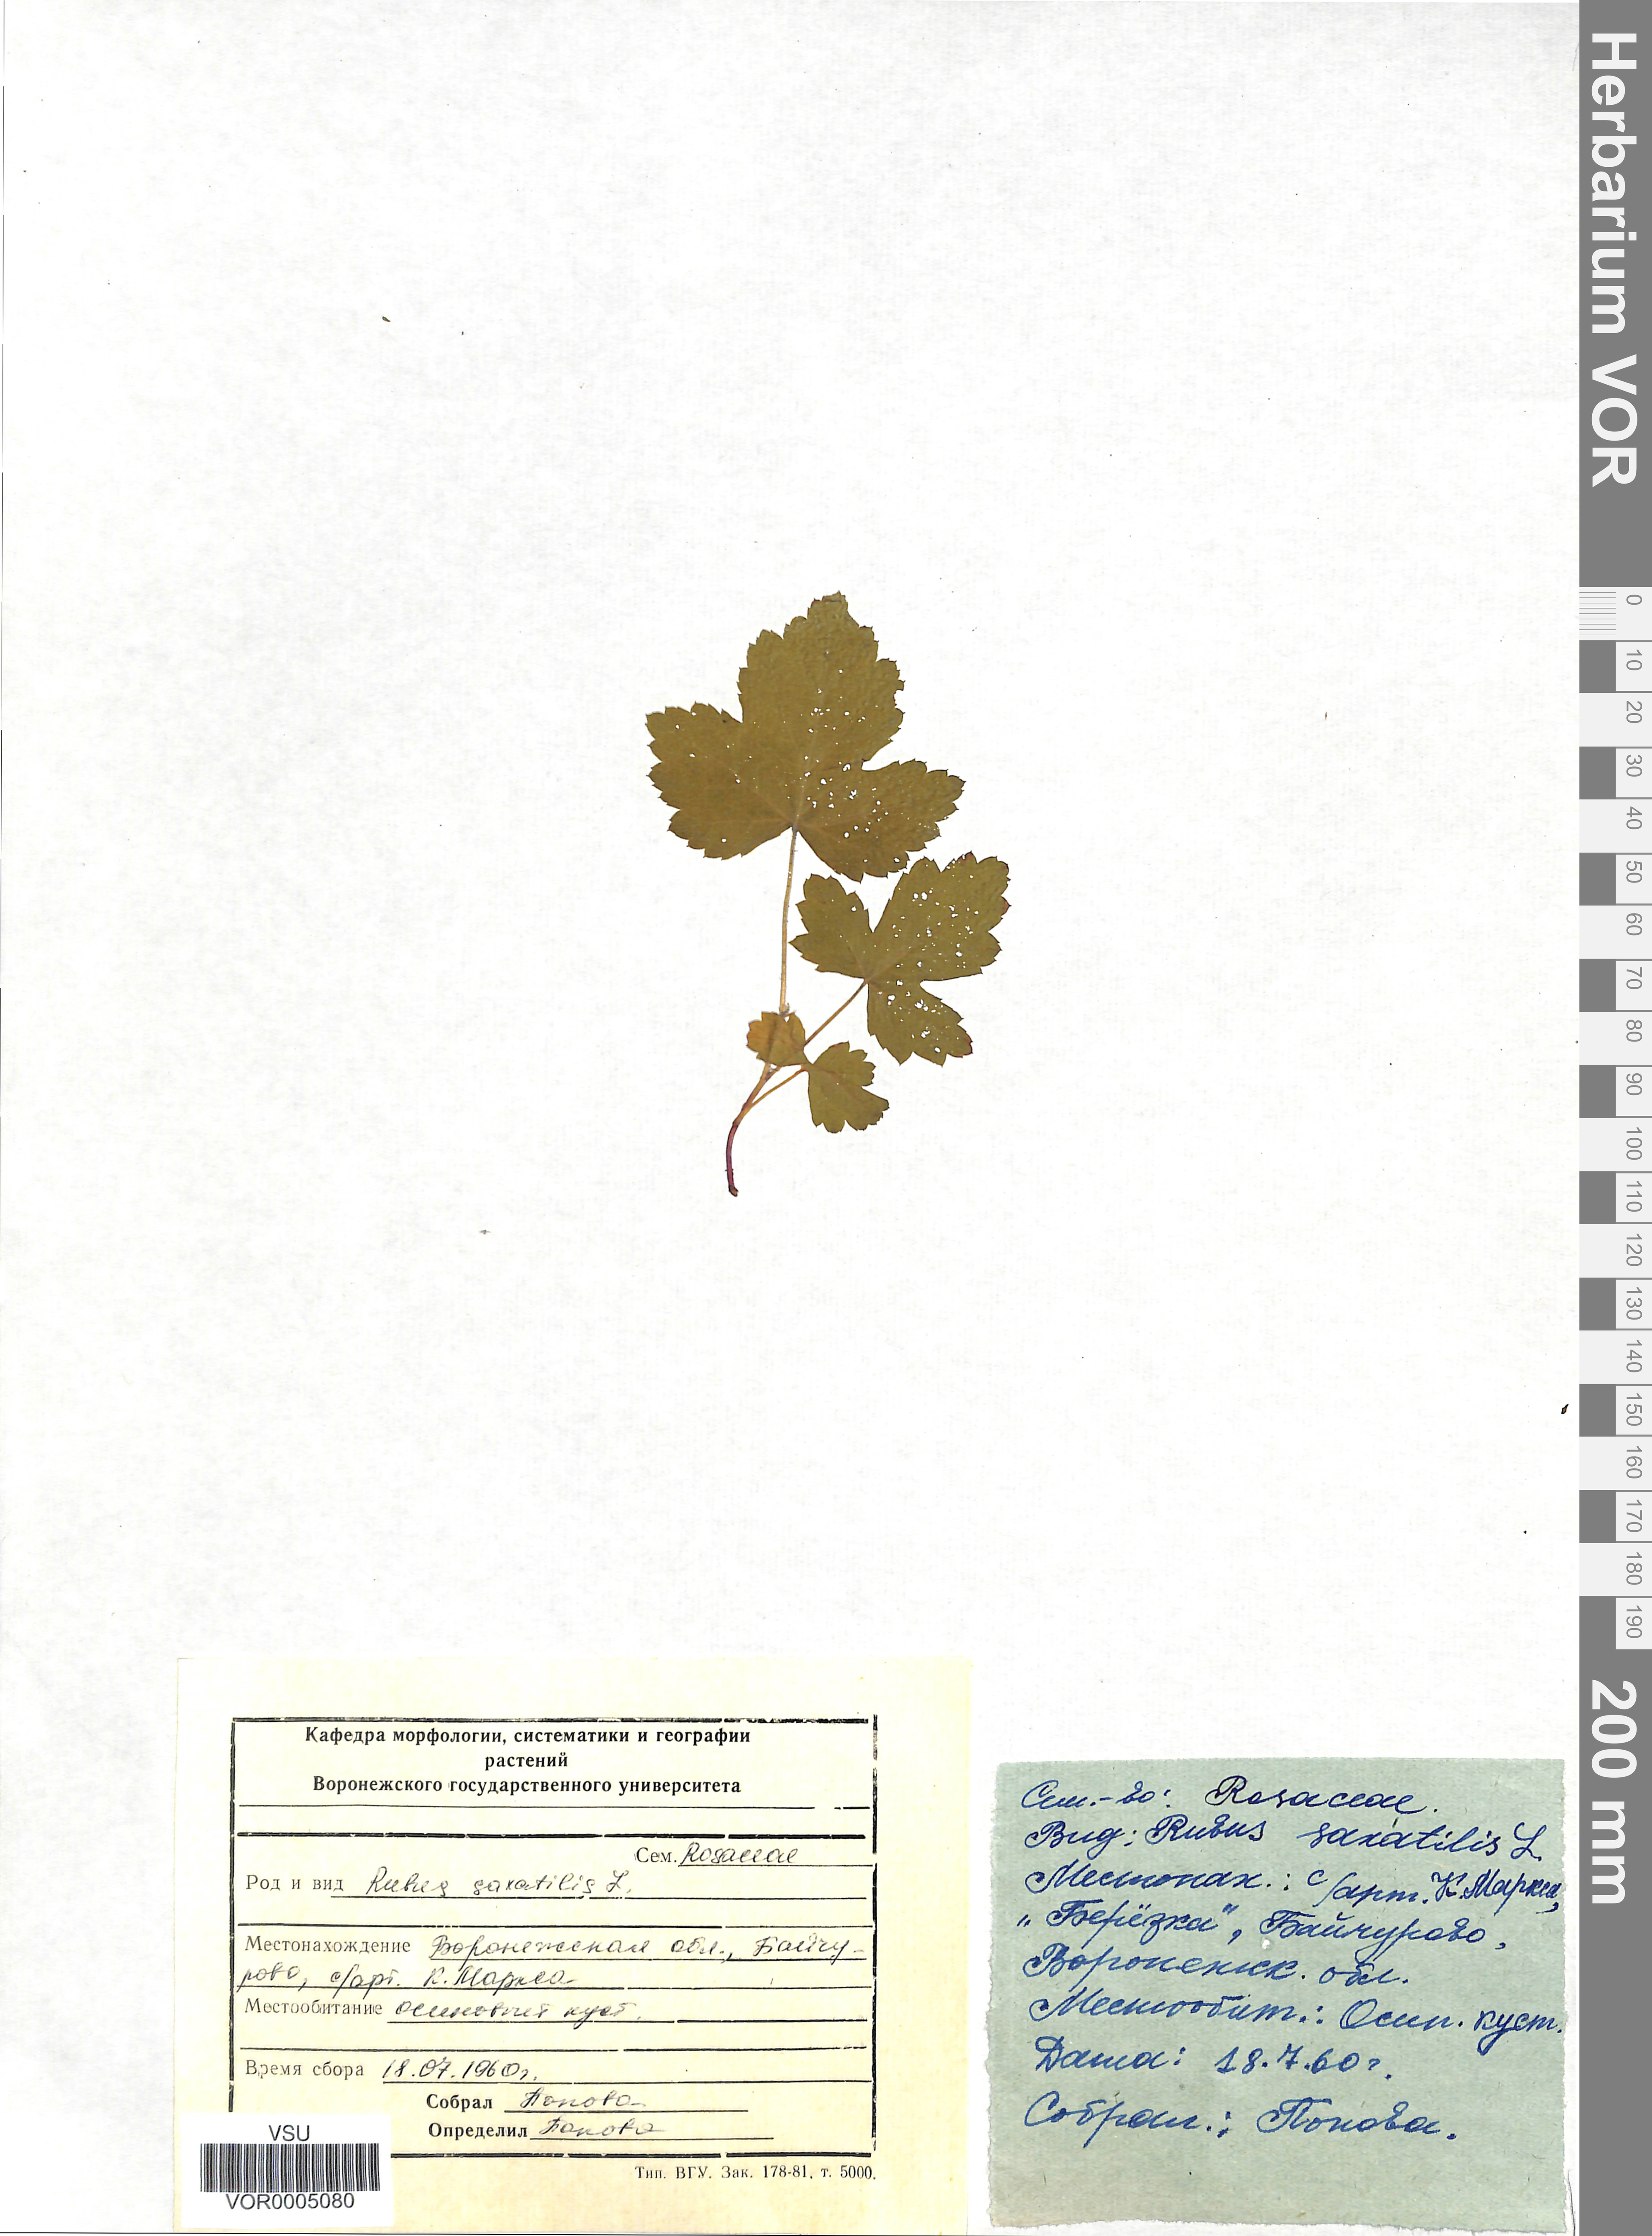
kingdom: Plantae
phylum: Tracheophyta
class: Magnoliopsida
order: Rosales
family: Rosaceae
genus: Rubus
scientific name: Rubus saxatilis
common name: Stone bramble
